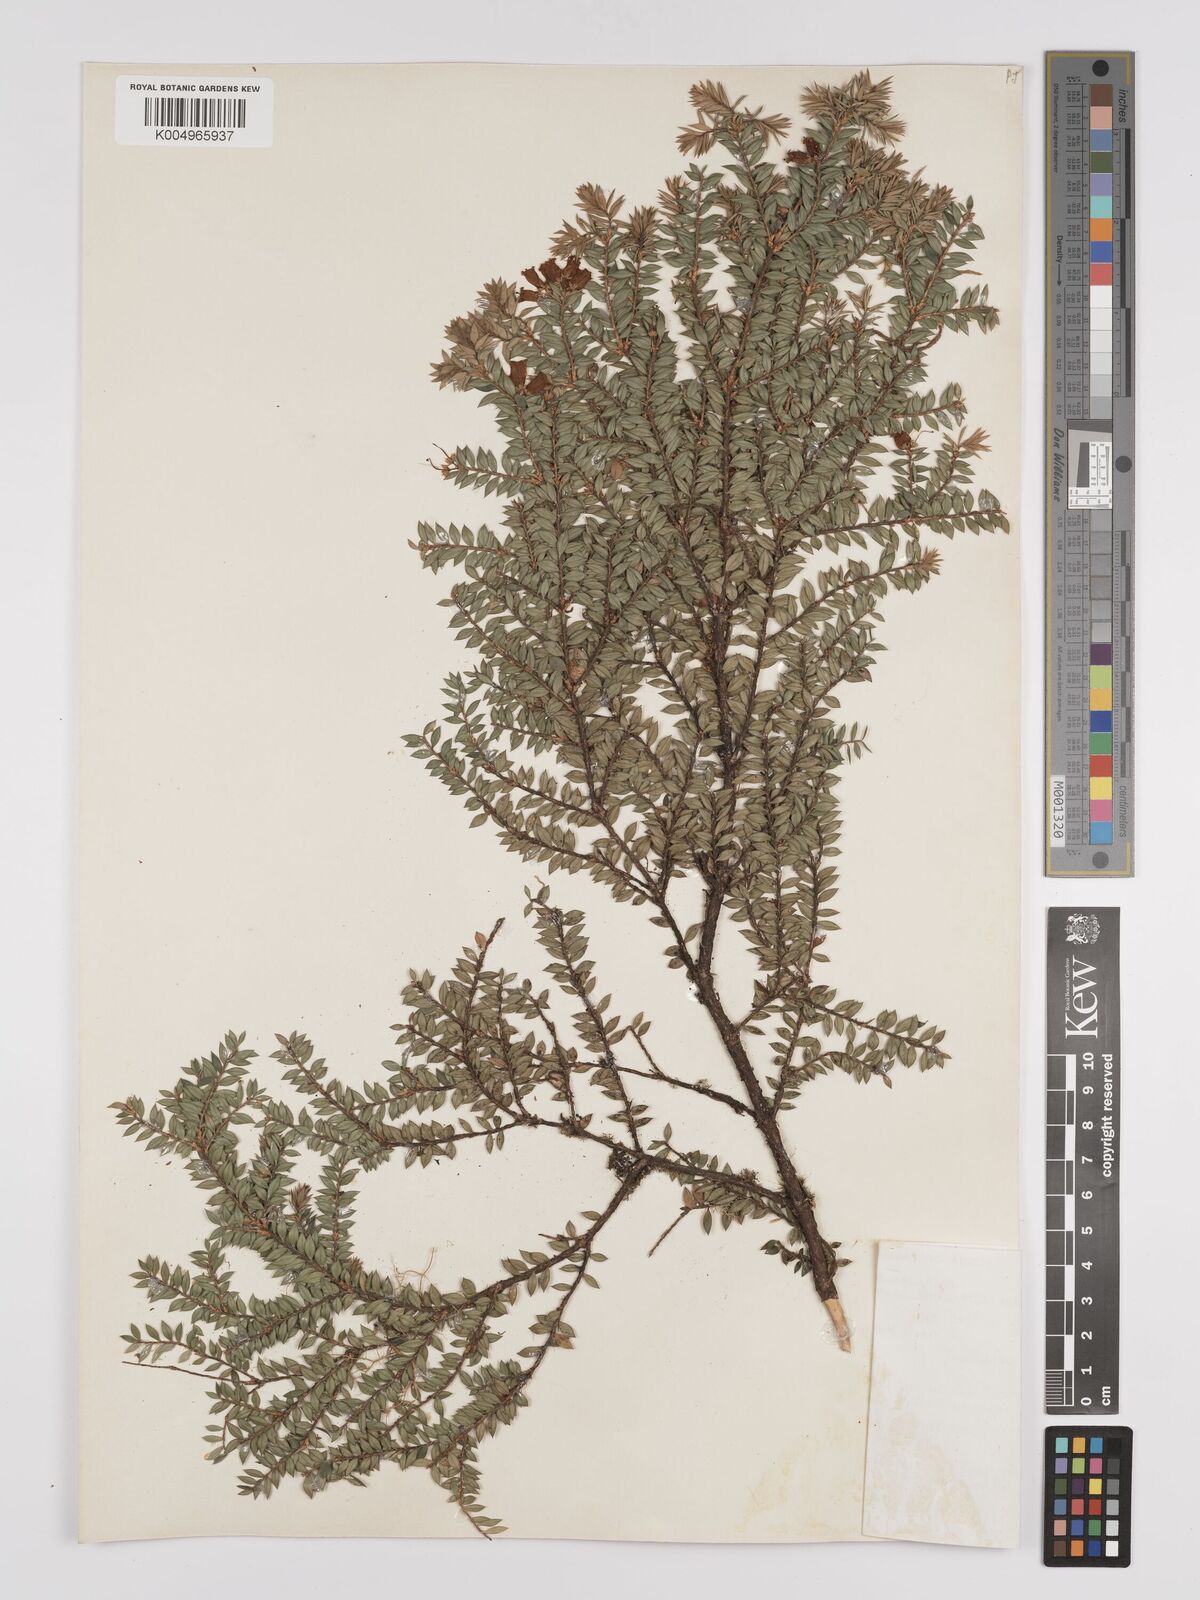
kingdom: Plantae
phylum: Tracheophyta
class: Magnoliopsida
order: Ericales
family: Ericaceae
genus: Epacris
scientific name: Epacris
